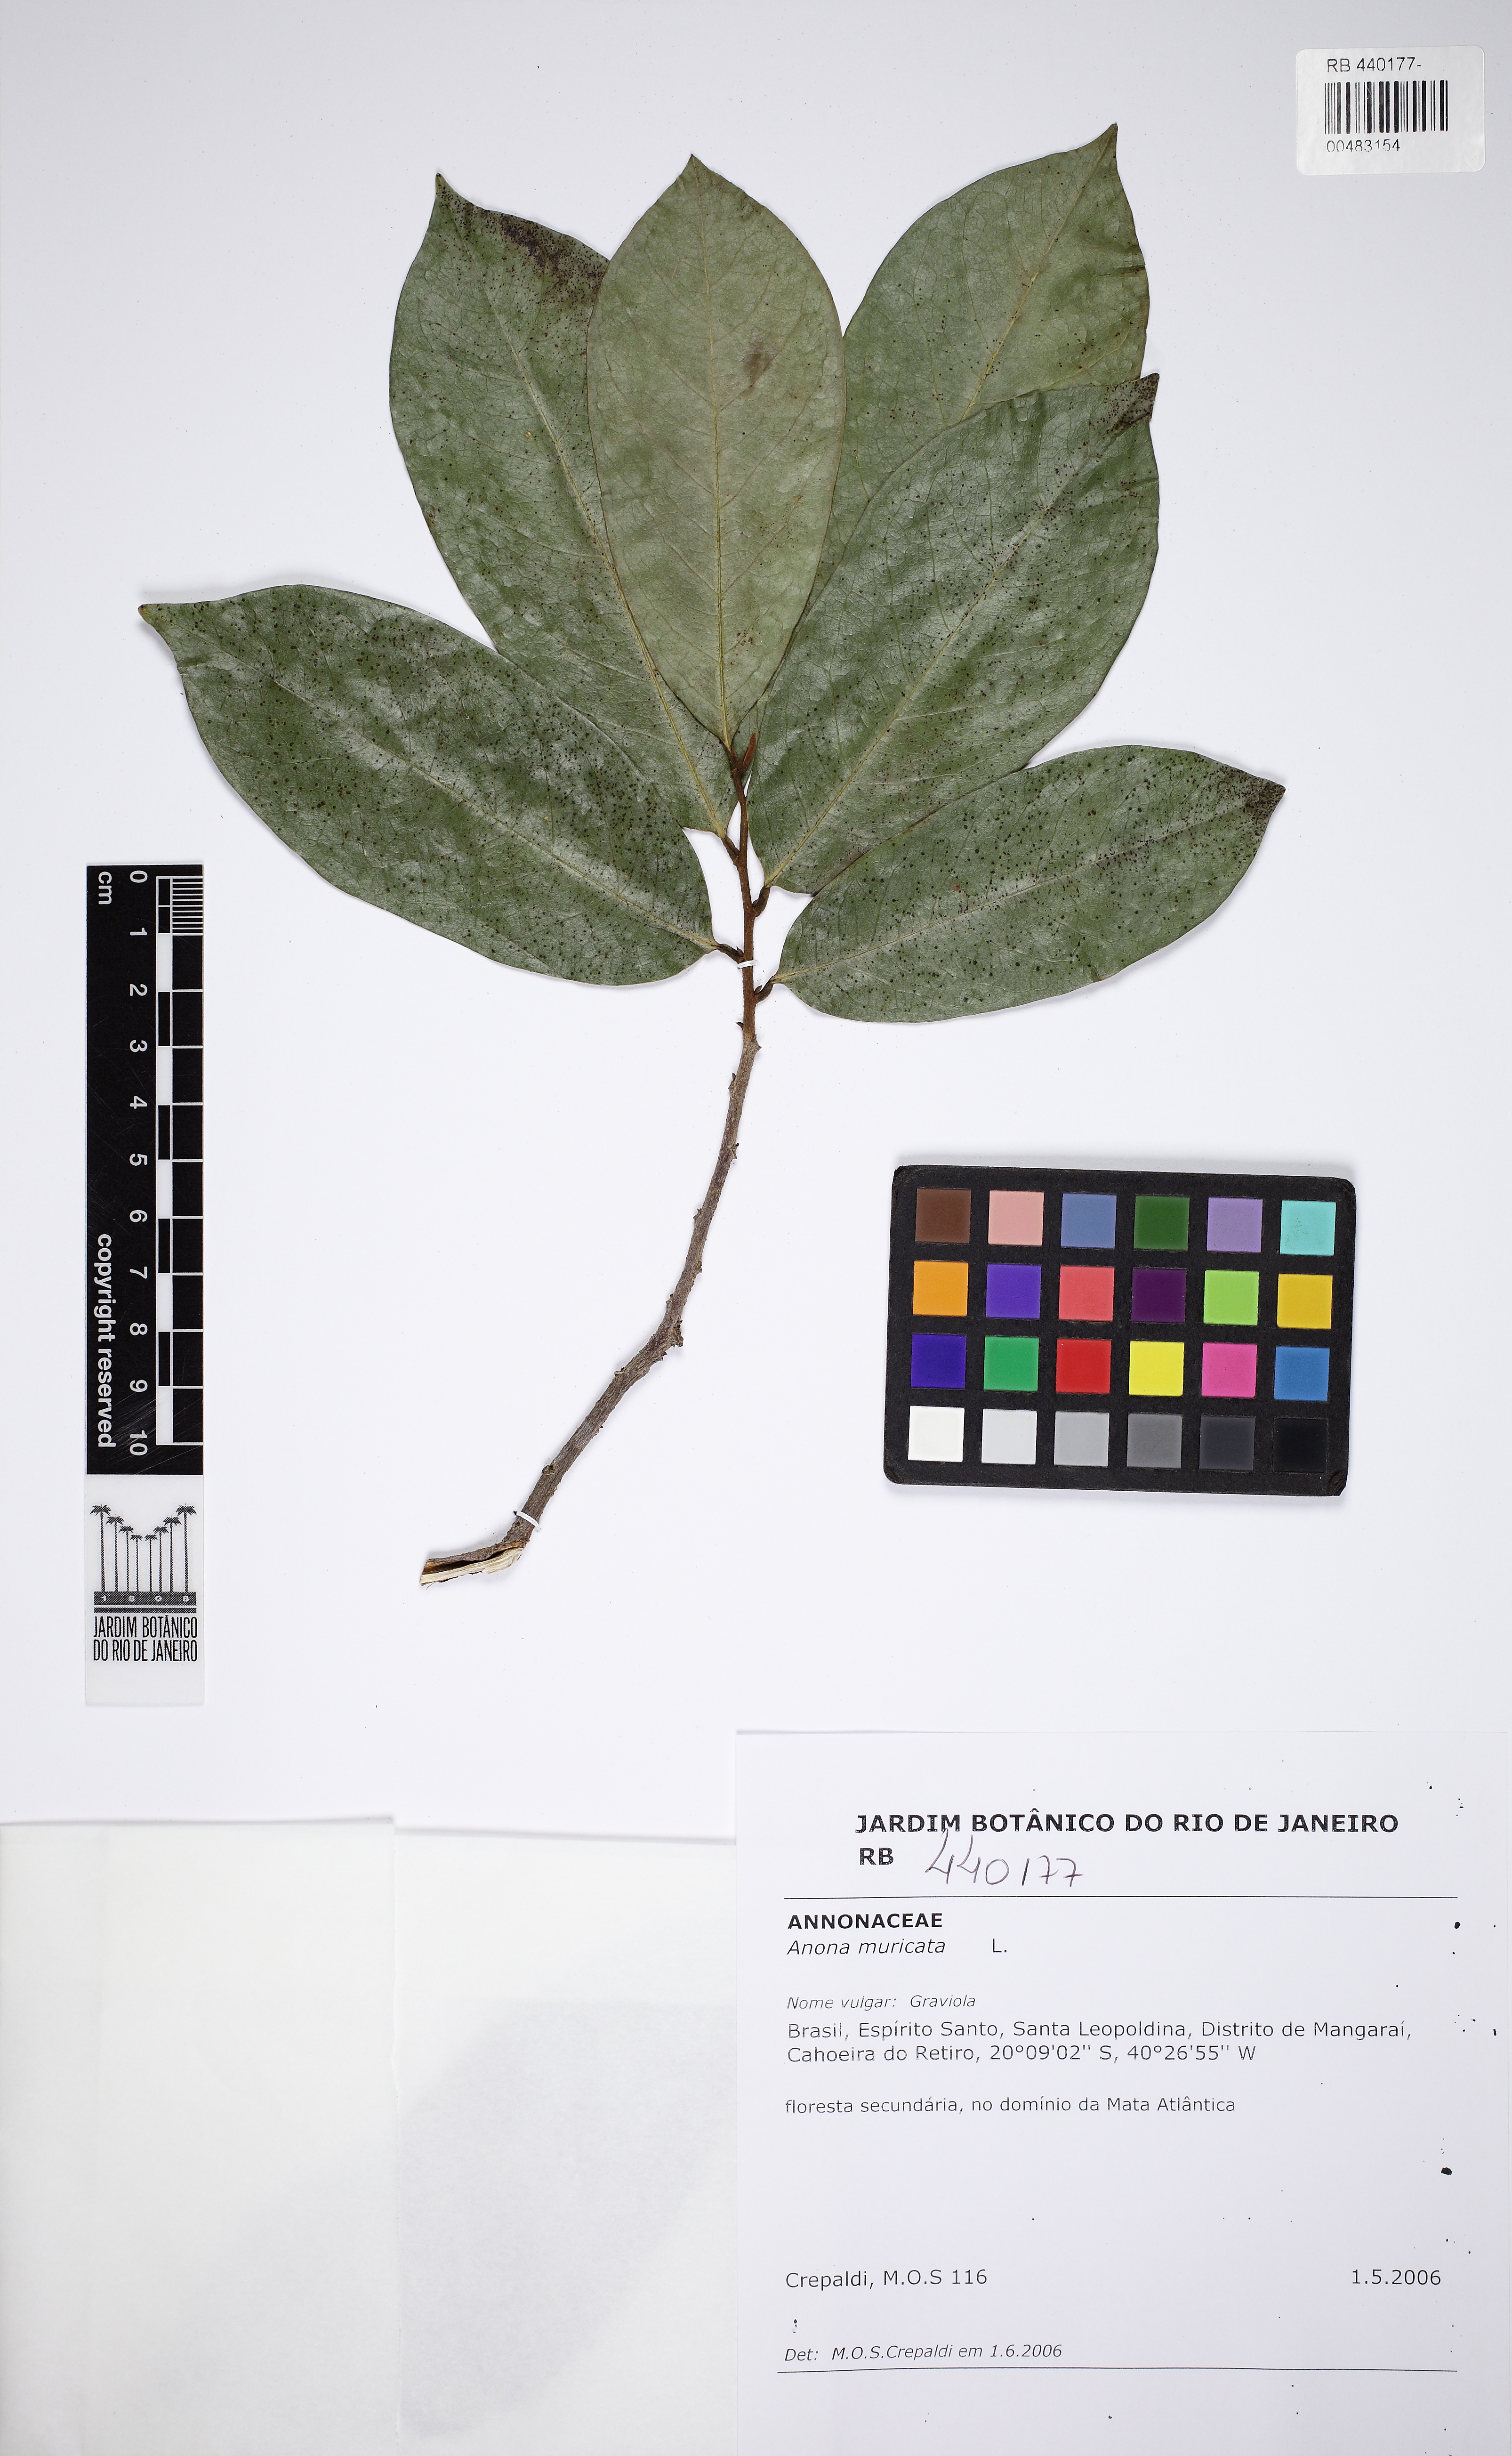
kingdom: Plantae
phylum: Tracheophyta
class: Magnoliopsida
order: Magnoliales
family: Annonaceae
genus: Annona
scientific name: Annona muricata
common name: Soursop
